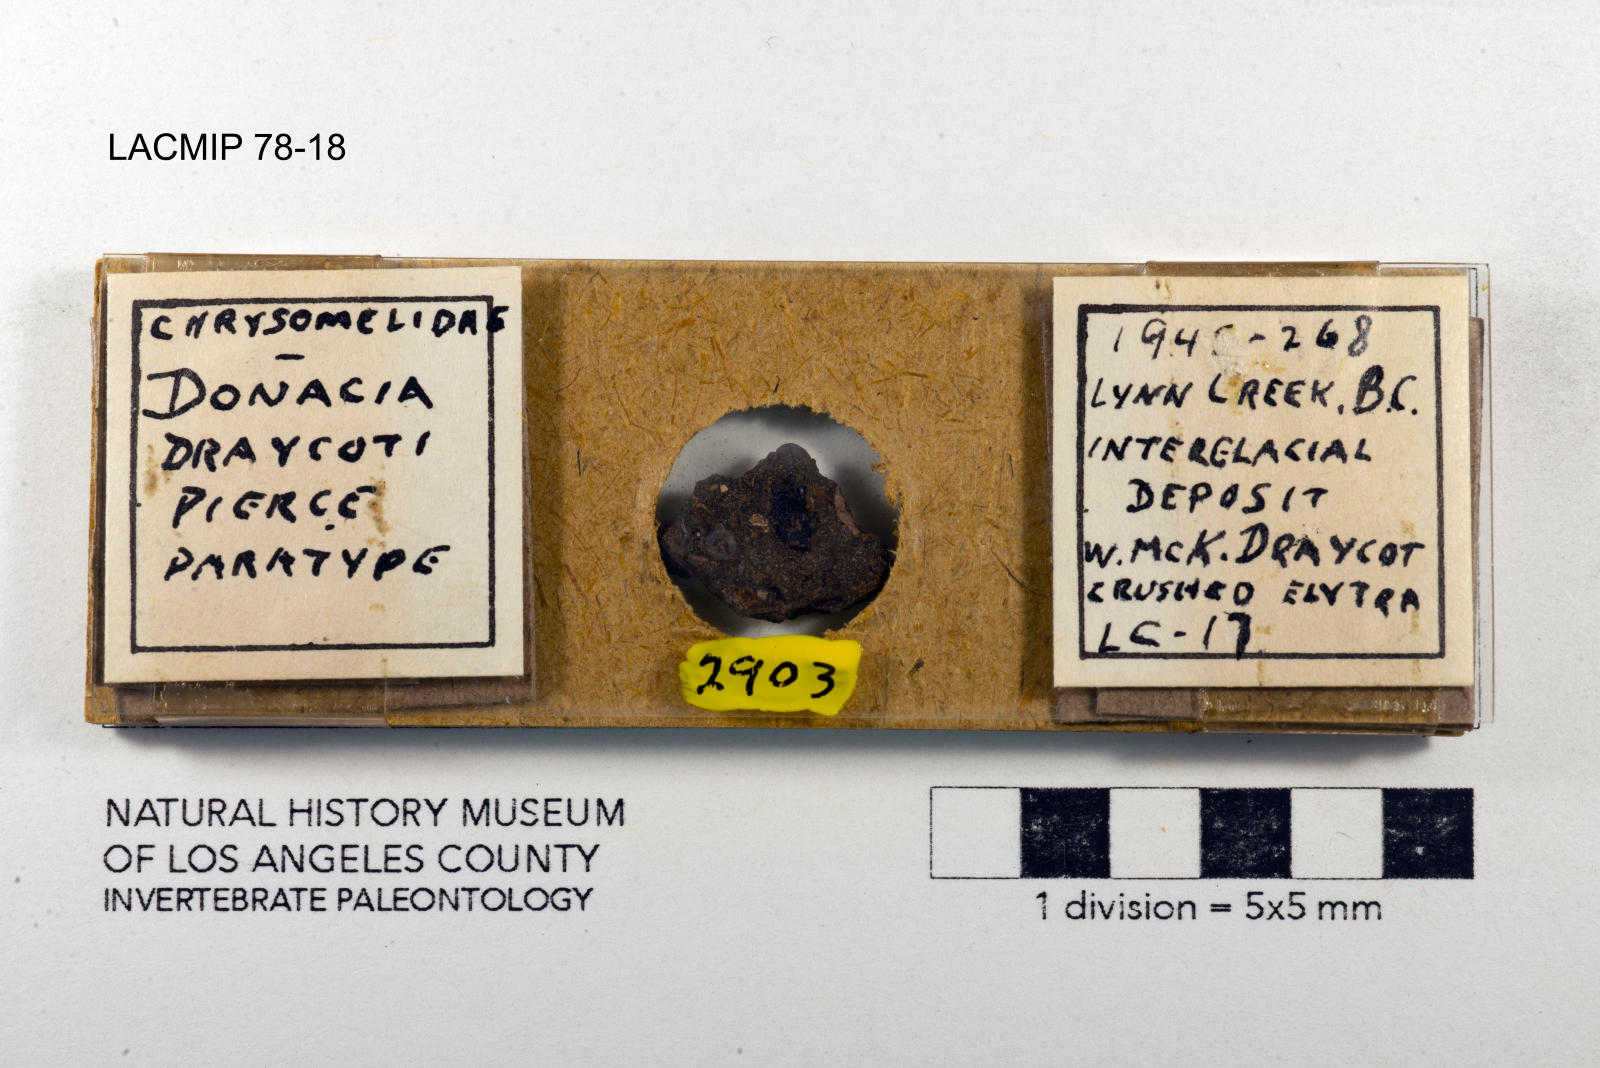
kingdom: Animalia
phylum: Arthropoda
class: Insecta
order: Coleoptera
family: Chrysomelidae
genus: Donacia
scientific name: Donacia draycoti
